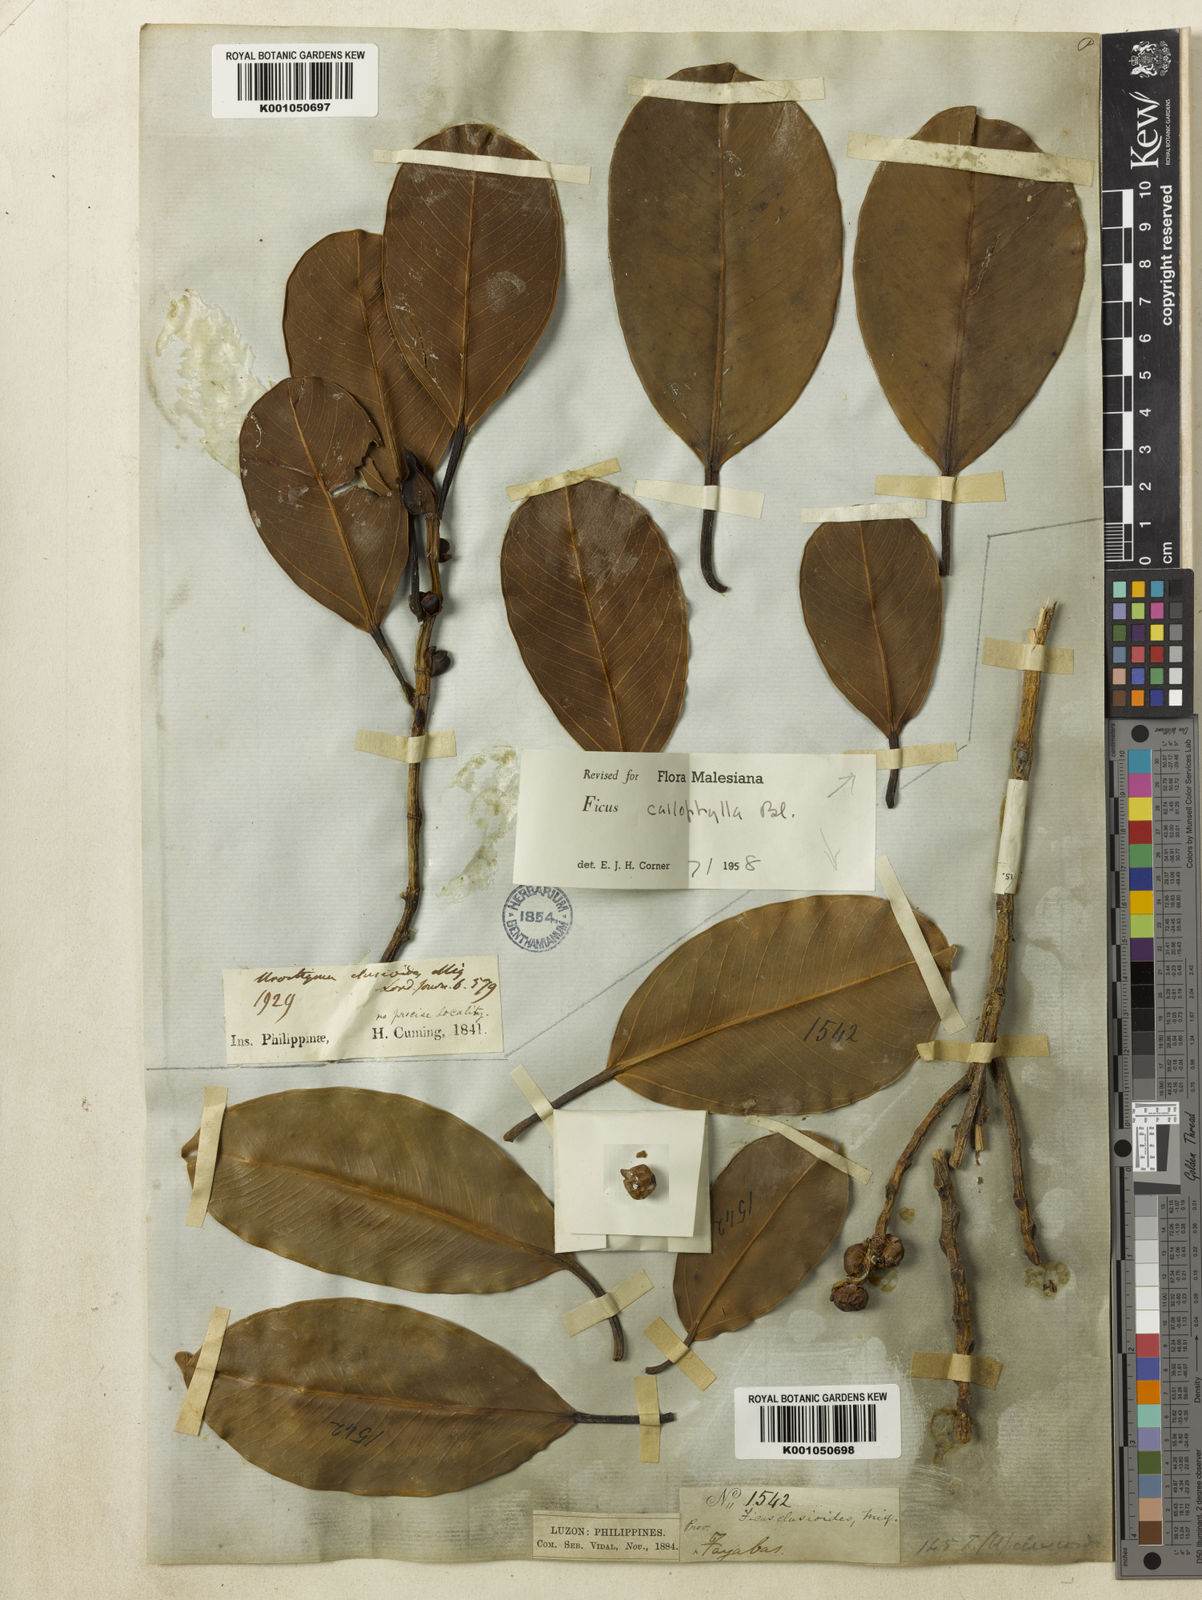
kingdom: Plantae
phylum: Tracheophyta
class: Magnoliopsida
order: Rosales
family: Moraceae
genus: Ficus
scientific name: Ficus callophylla
